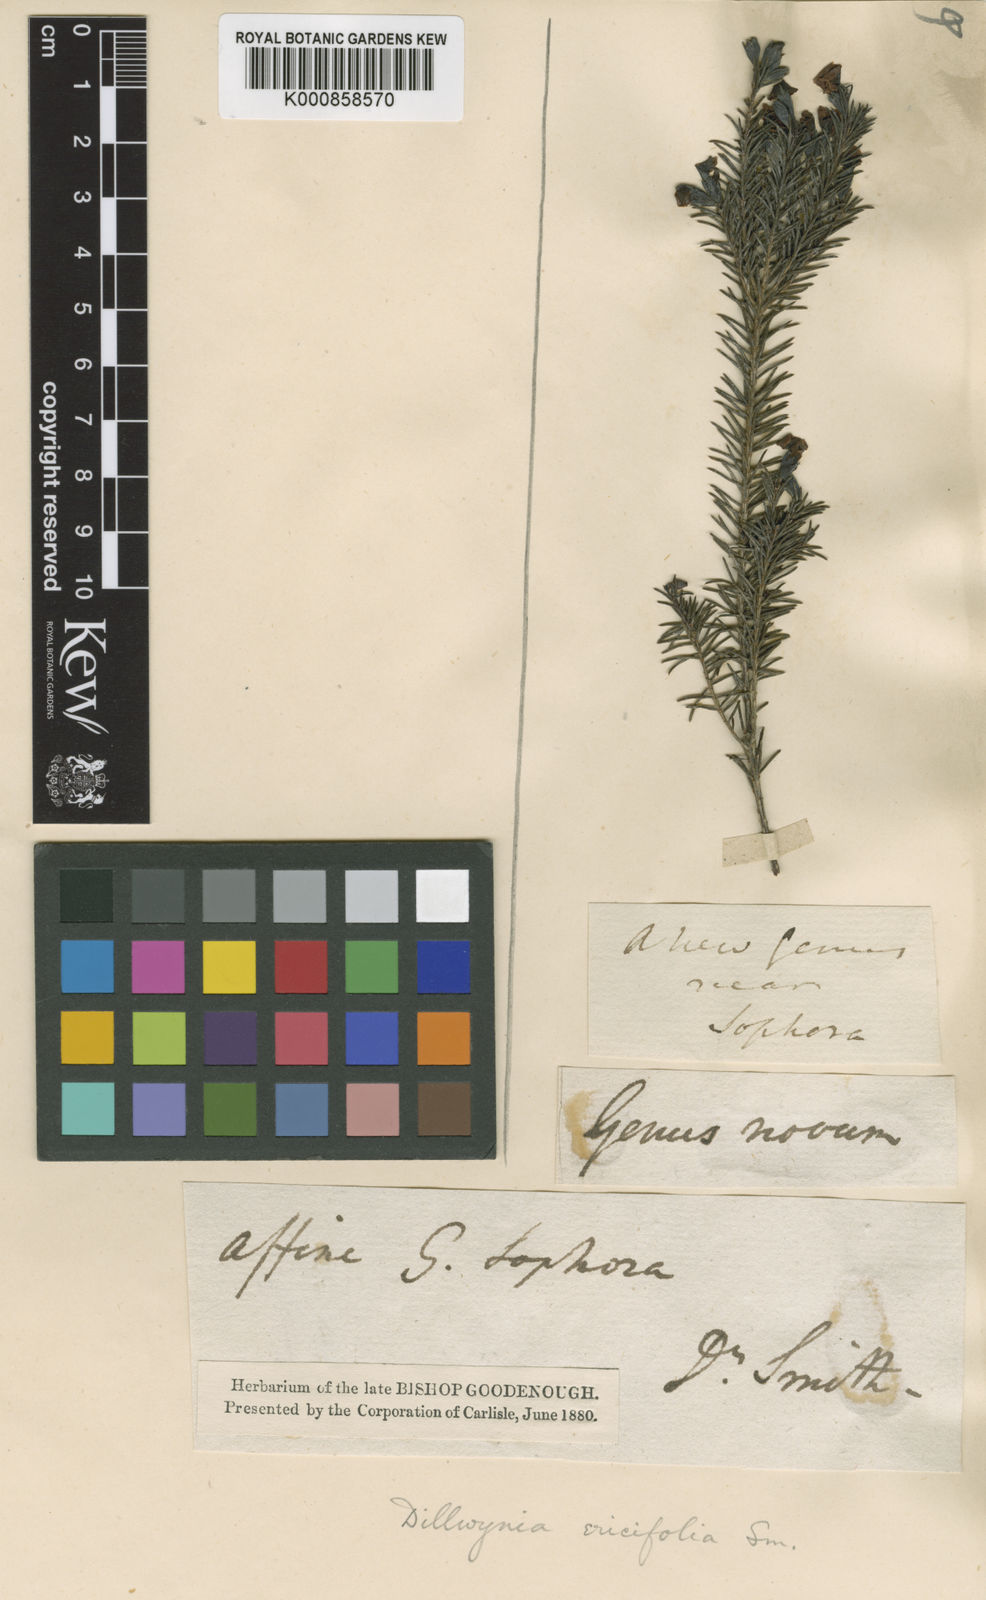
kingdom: Plantae
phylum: Tracheophyta
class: Magnoliopsida
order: Fabales
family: Fabaceae
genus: Dillwynia
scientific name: Dillwynia retorta
